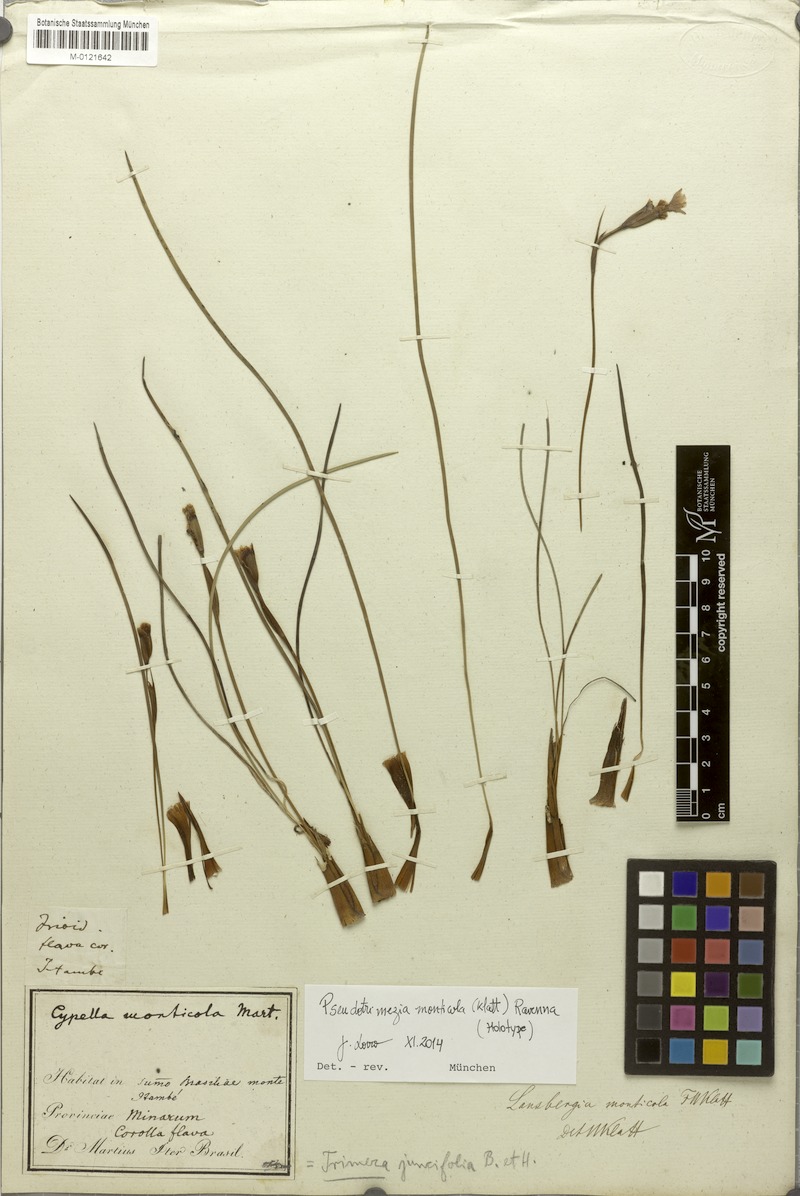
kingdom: Plantae
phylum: Tracheophyta
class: Liliopsida
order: Asparagales
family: Iridaceae
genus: Trimezia
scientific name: Trimezia monticola
